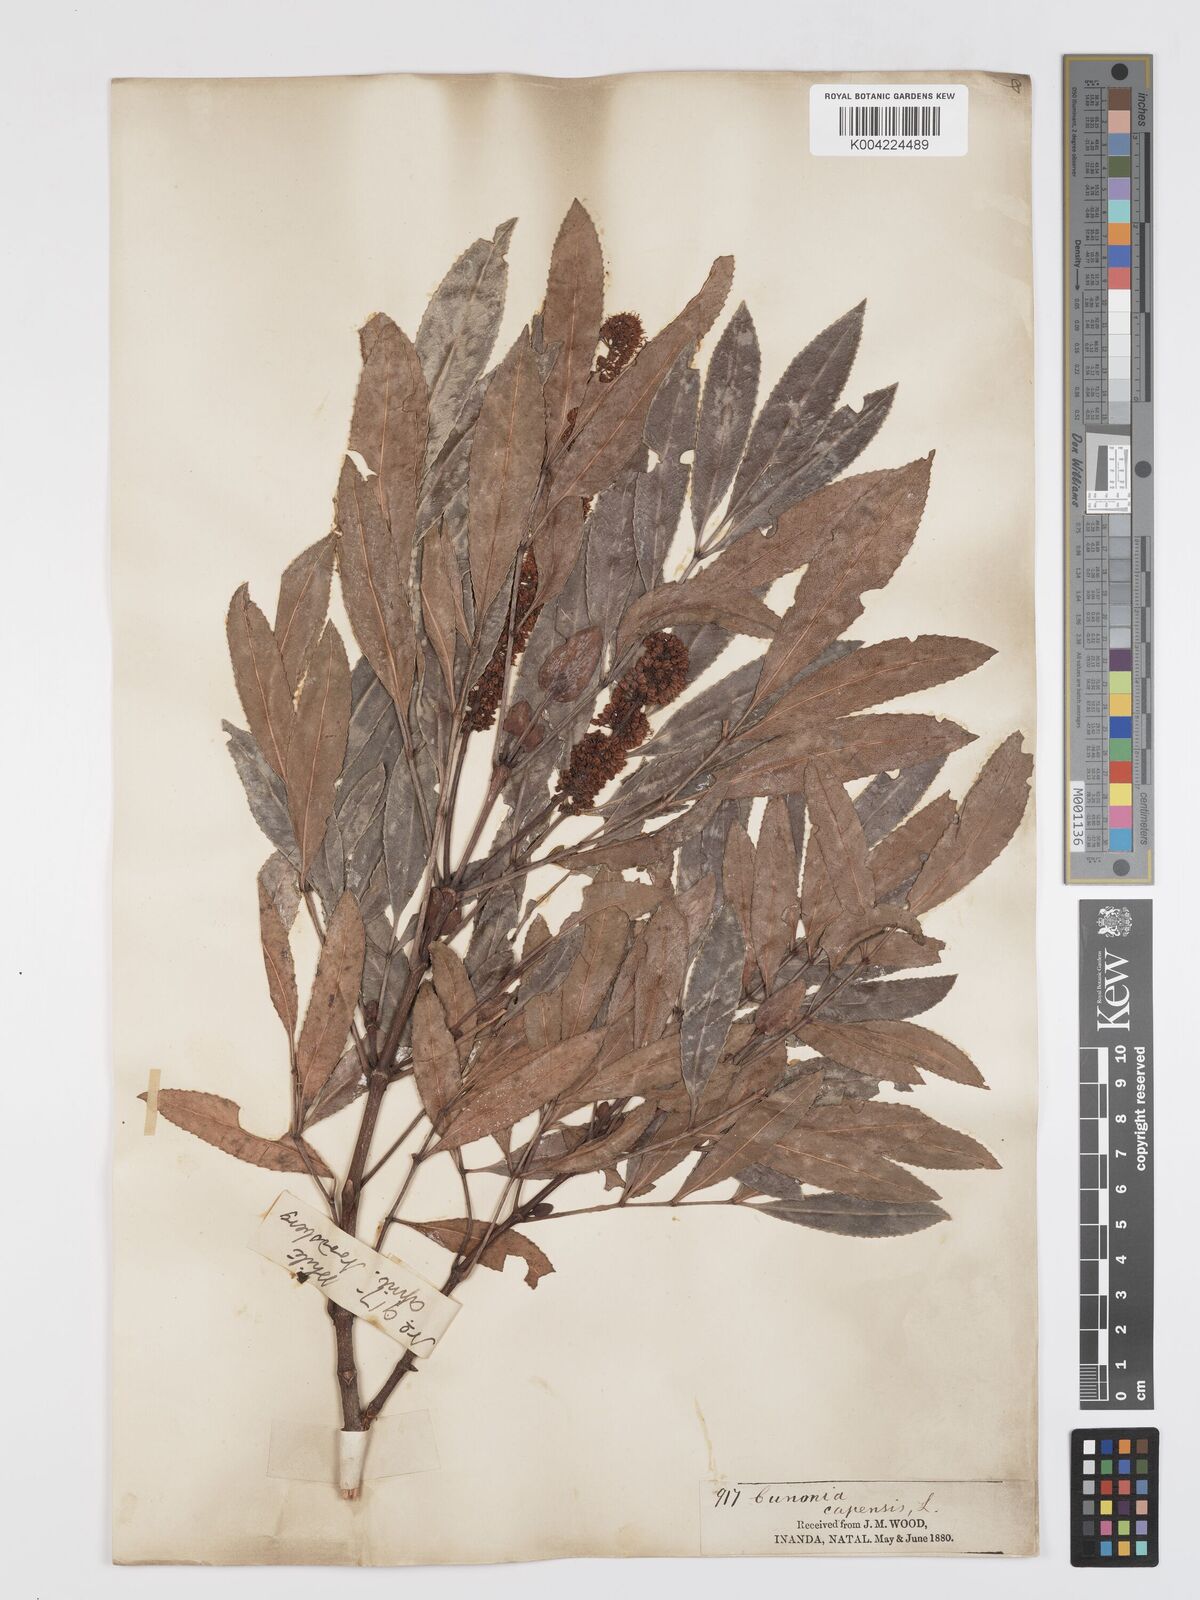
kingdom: Plantae
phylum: Tracheophyta
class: Magnoliopsida
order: Oxalidales
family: Cunoniaceae
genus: Cunonia
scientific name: Cunonia capensis
